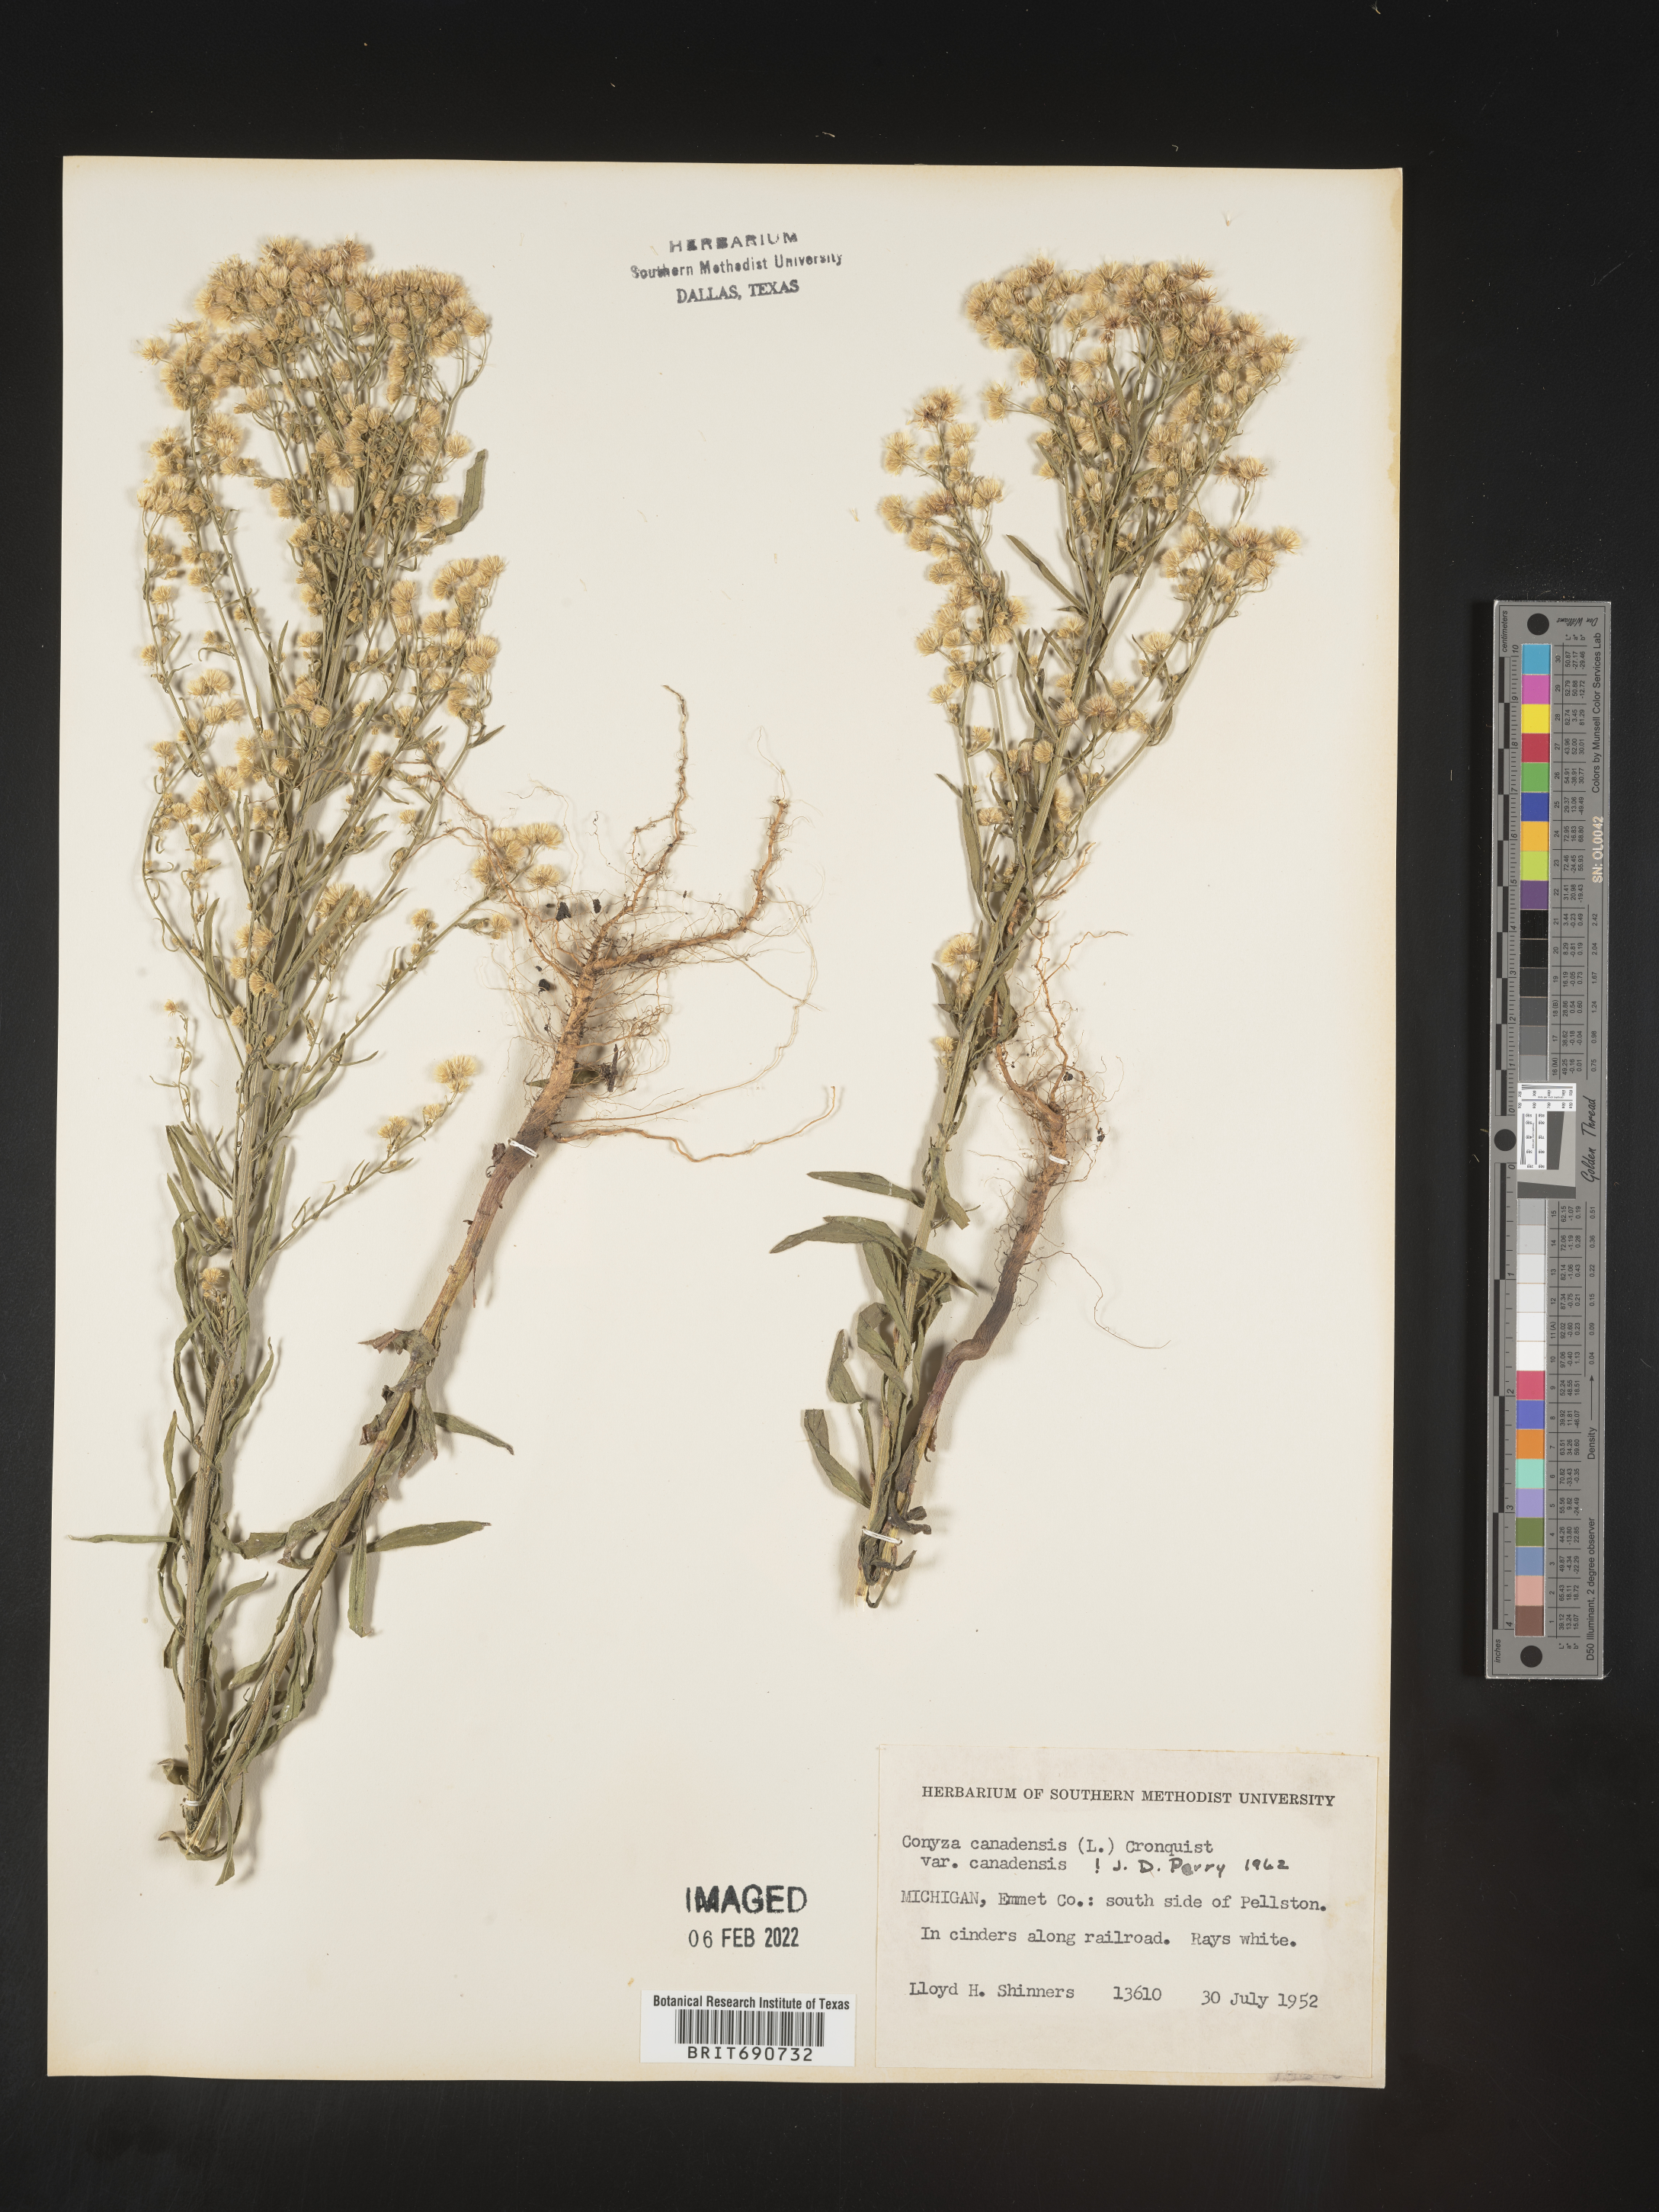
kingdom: Plantae
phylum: Tracheophyta
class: Magnoliopsida
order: Asterales
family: Asteraceae
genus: Erigeron
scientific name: Erigeron canadensis
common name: Canadian fleabane
